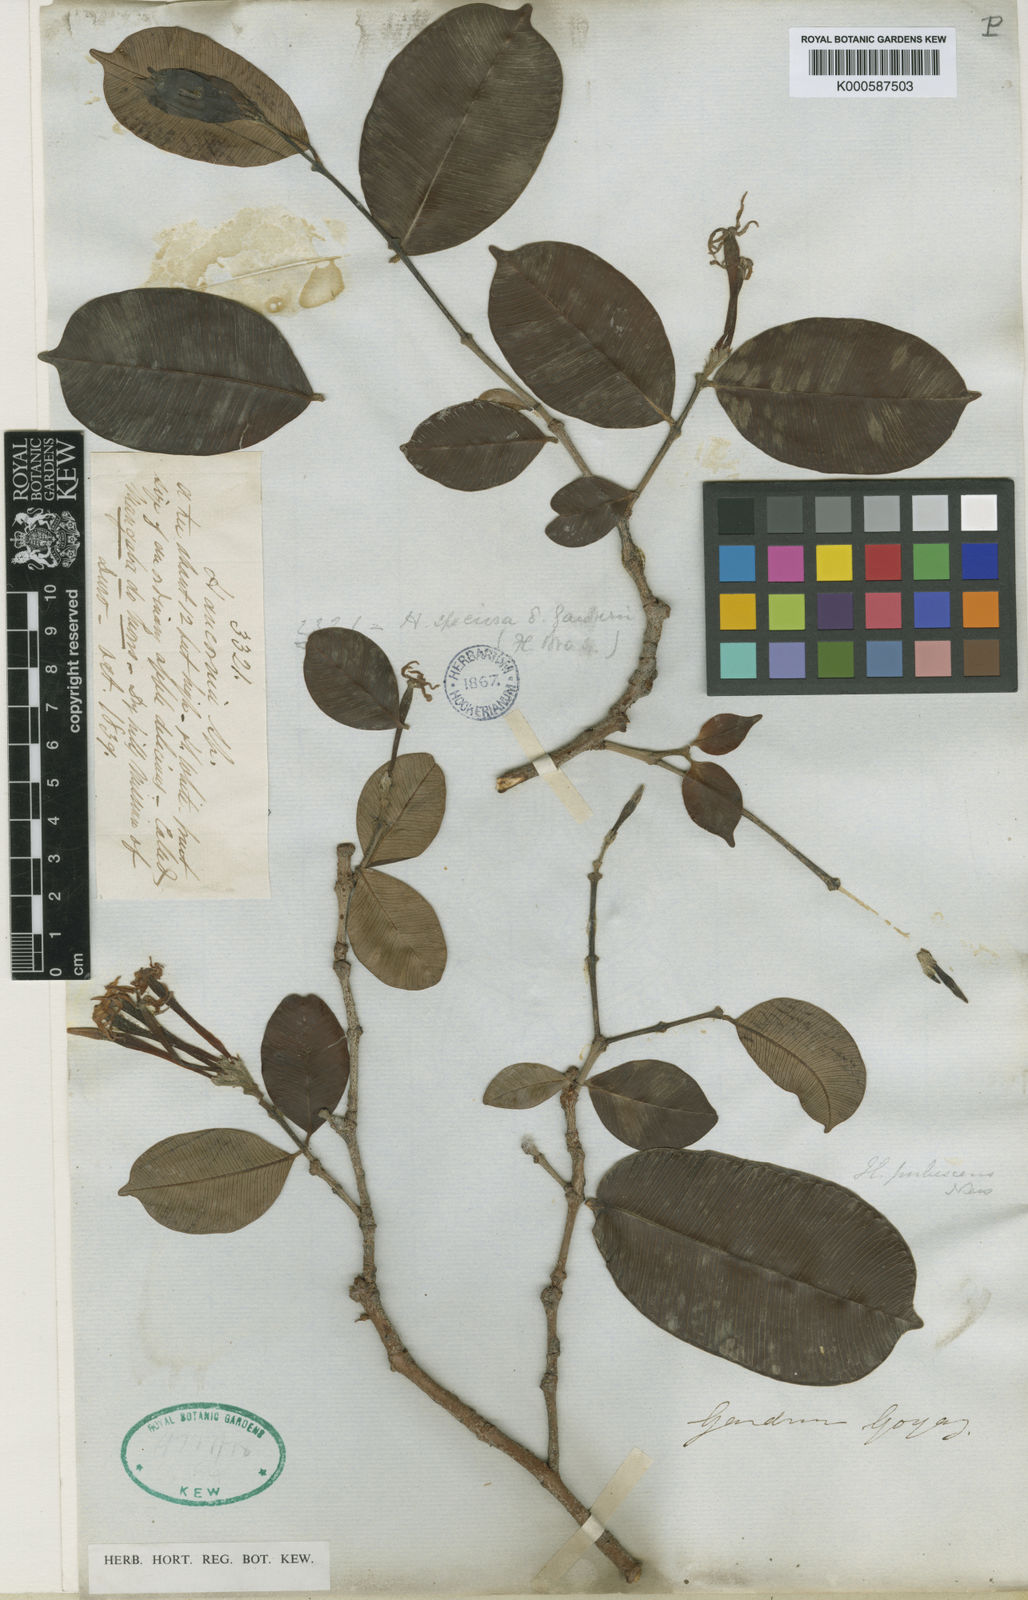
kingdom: Plantae
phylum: Tracheophyta
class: Magnoliopsida
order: Gentianales
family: Apocynaceae
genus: Hancornia
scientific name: Hancornia speciosa
